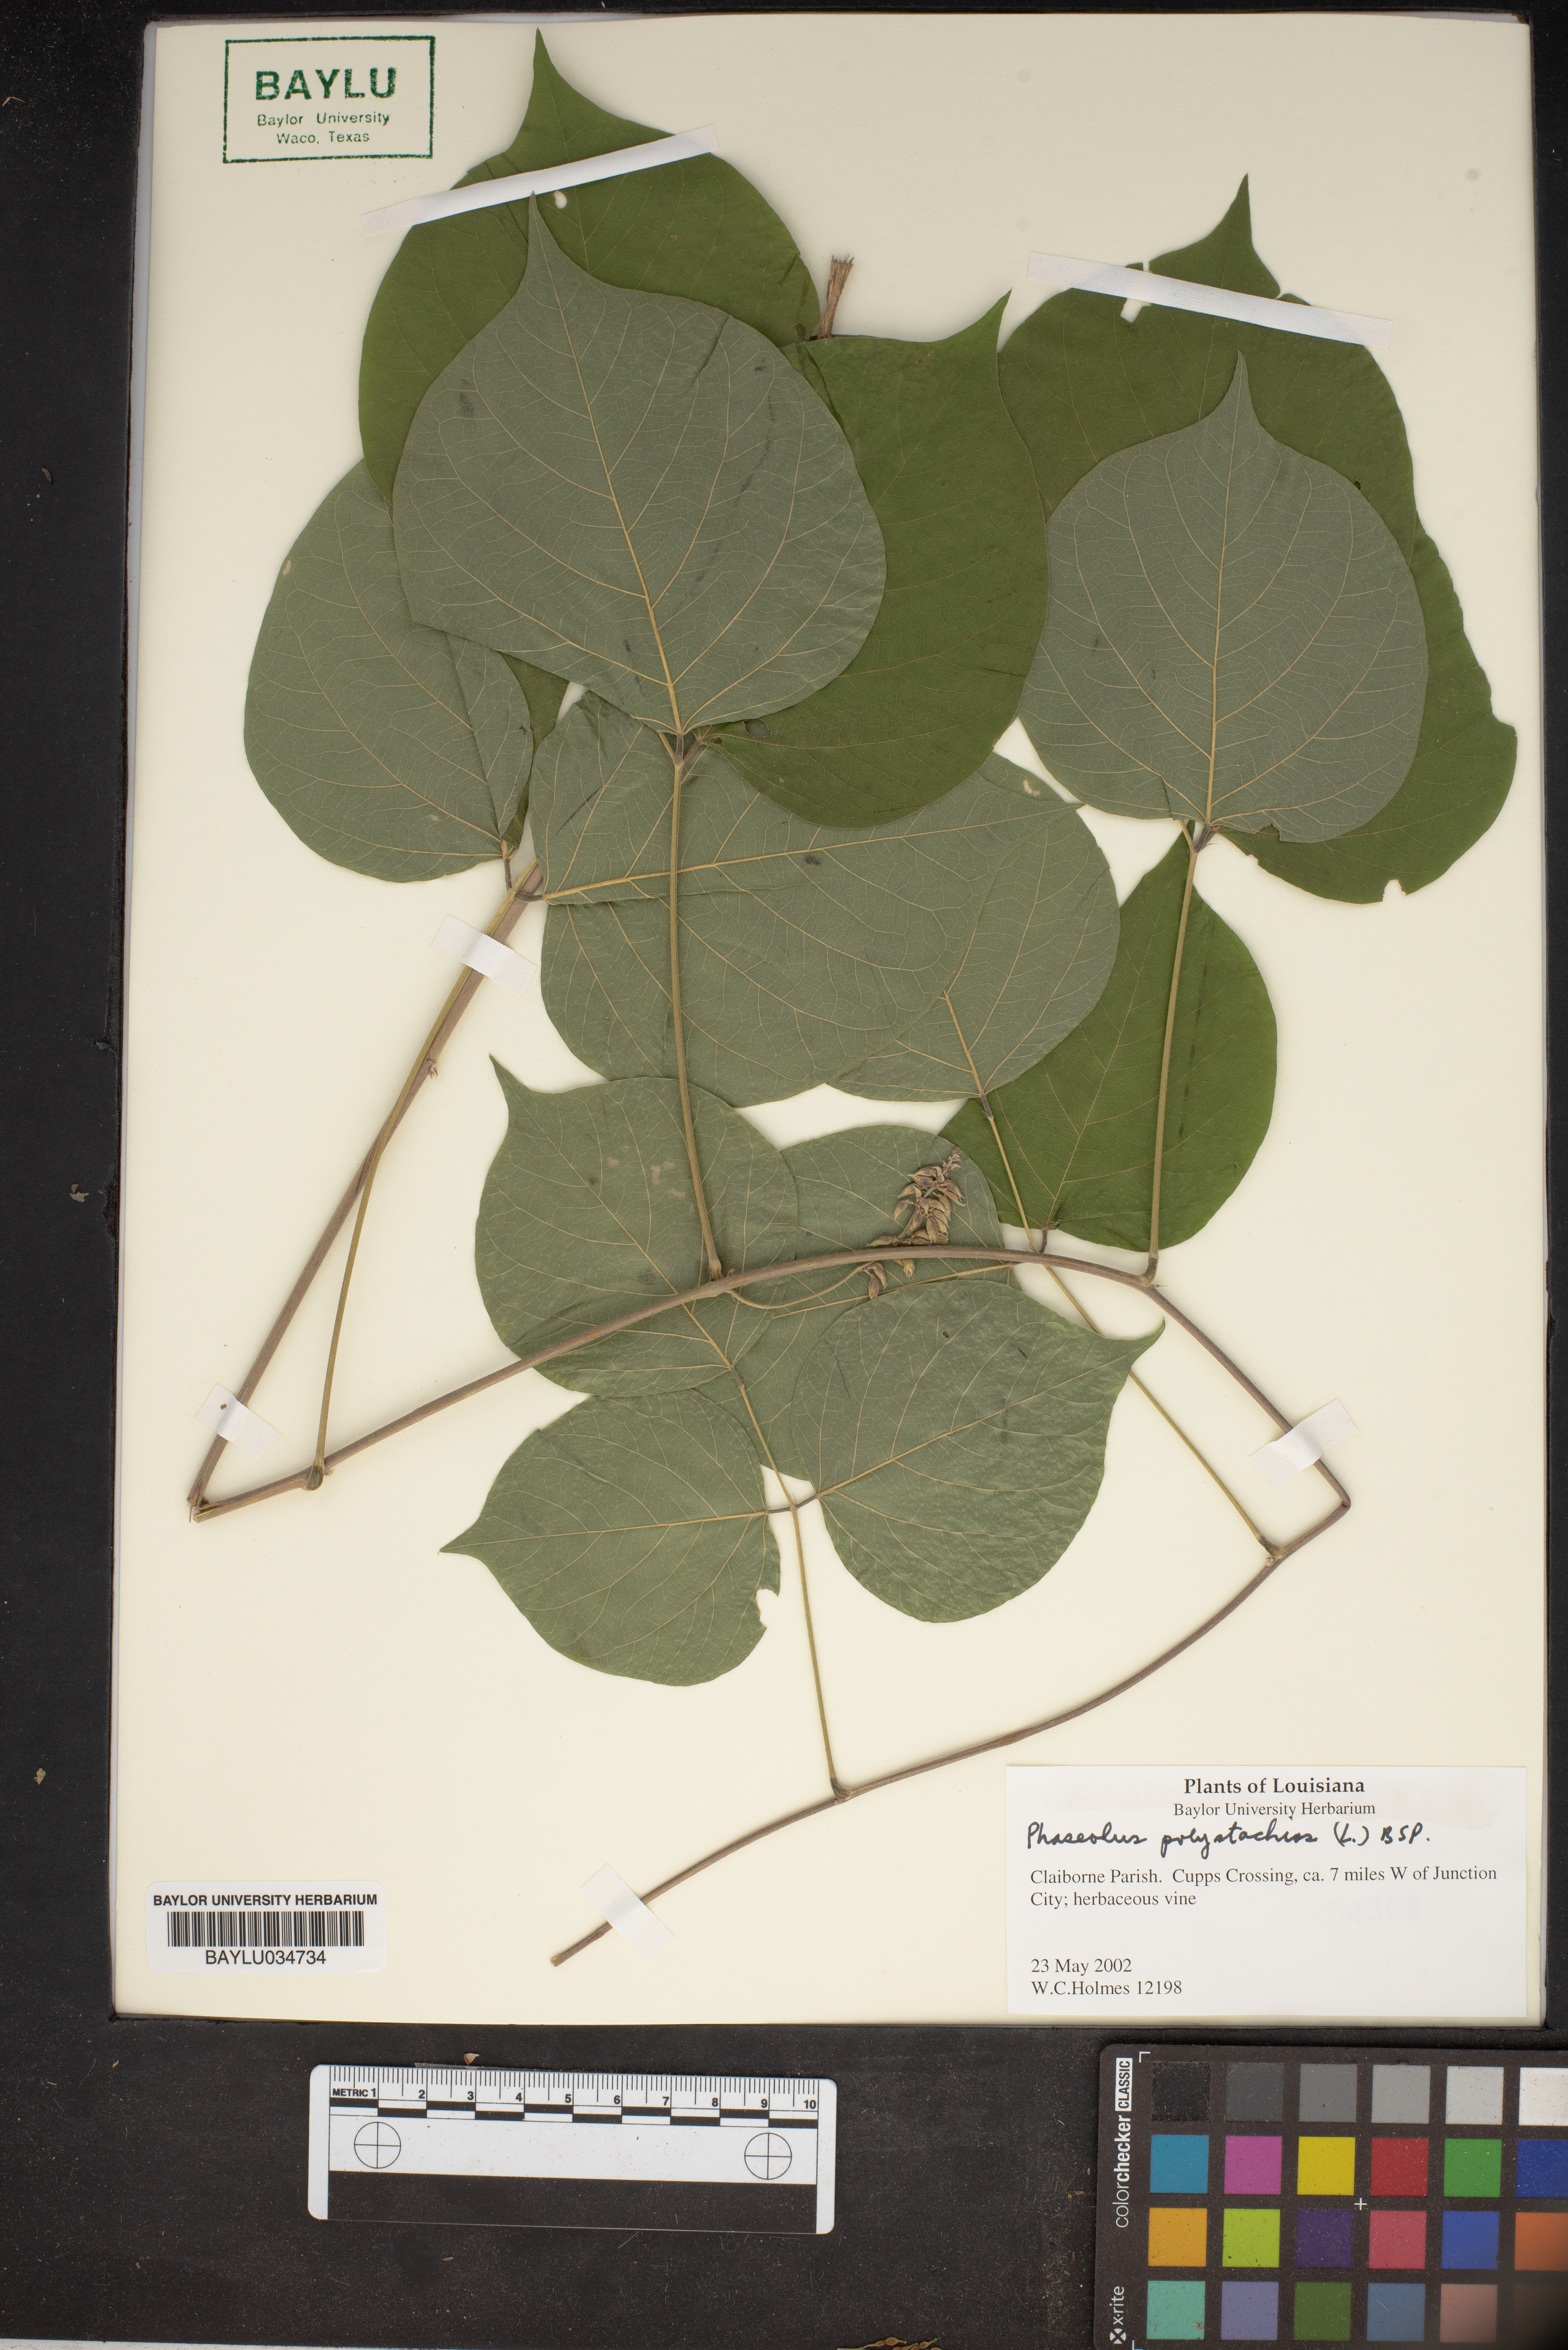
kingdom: Plantae
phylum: Tracheophyta
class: Magnoliopsida
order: Fabales
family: Fabaceae
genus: Phaseolus
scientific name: Phaseolus polystachios
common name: Thicket bean
